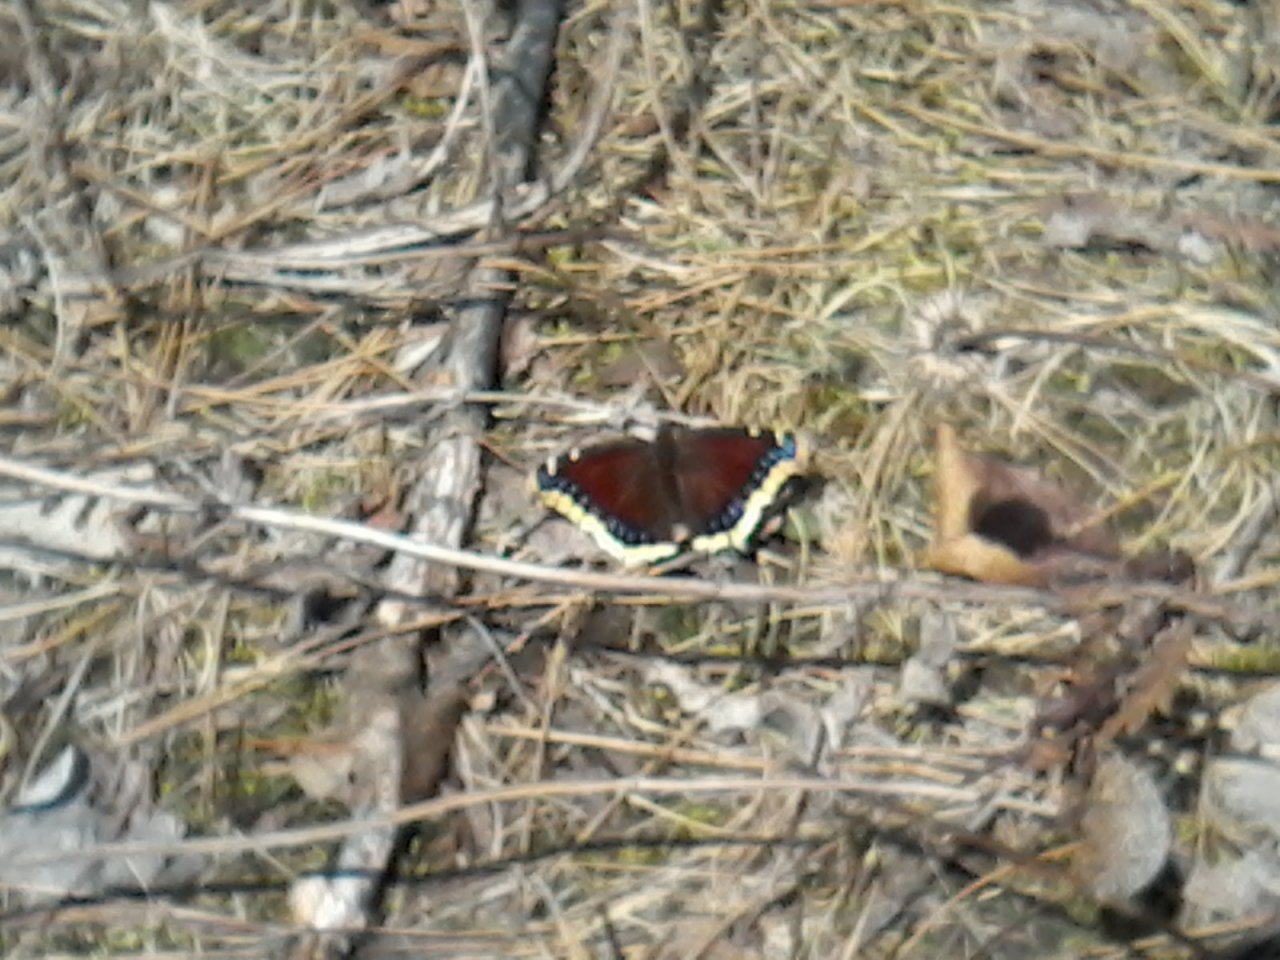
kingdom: Animalia
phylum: Arthropoda
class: Insecta
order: Lepidoptera
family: Nymphalidae
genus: Nymphalis
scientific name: Nymphalis antiopa
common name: Mourning Cloak
